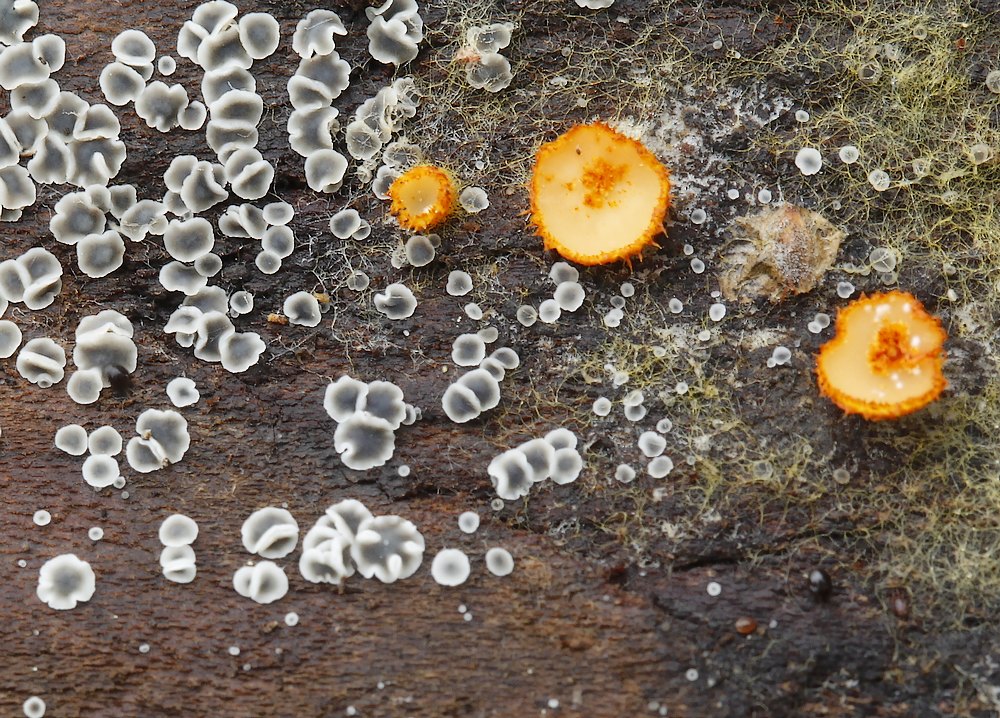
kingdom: Fungi
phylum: Ascomycota
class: Leotiomycetes
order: Helotiales
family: Arachnopezizaceae
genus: Arachnopeziza
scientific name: Arachnopeziza aurelia
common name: flamme-spindskive
